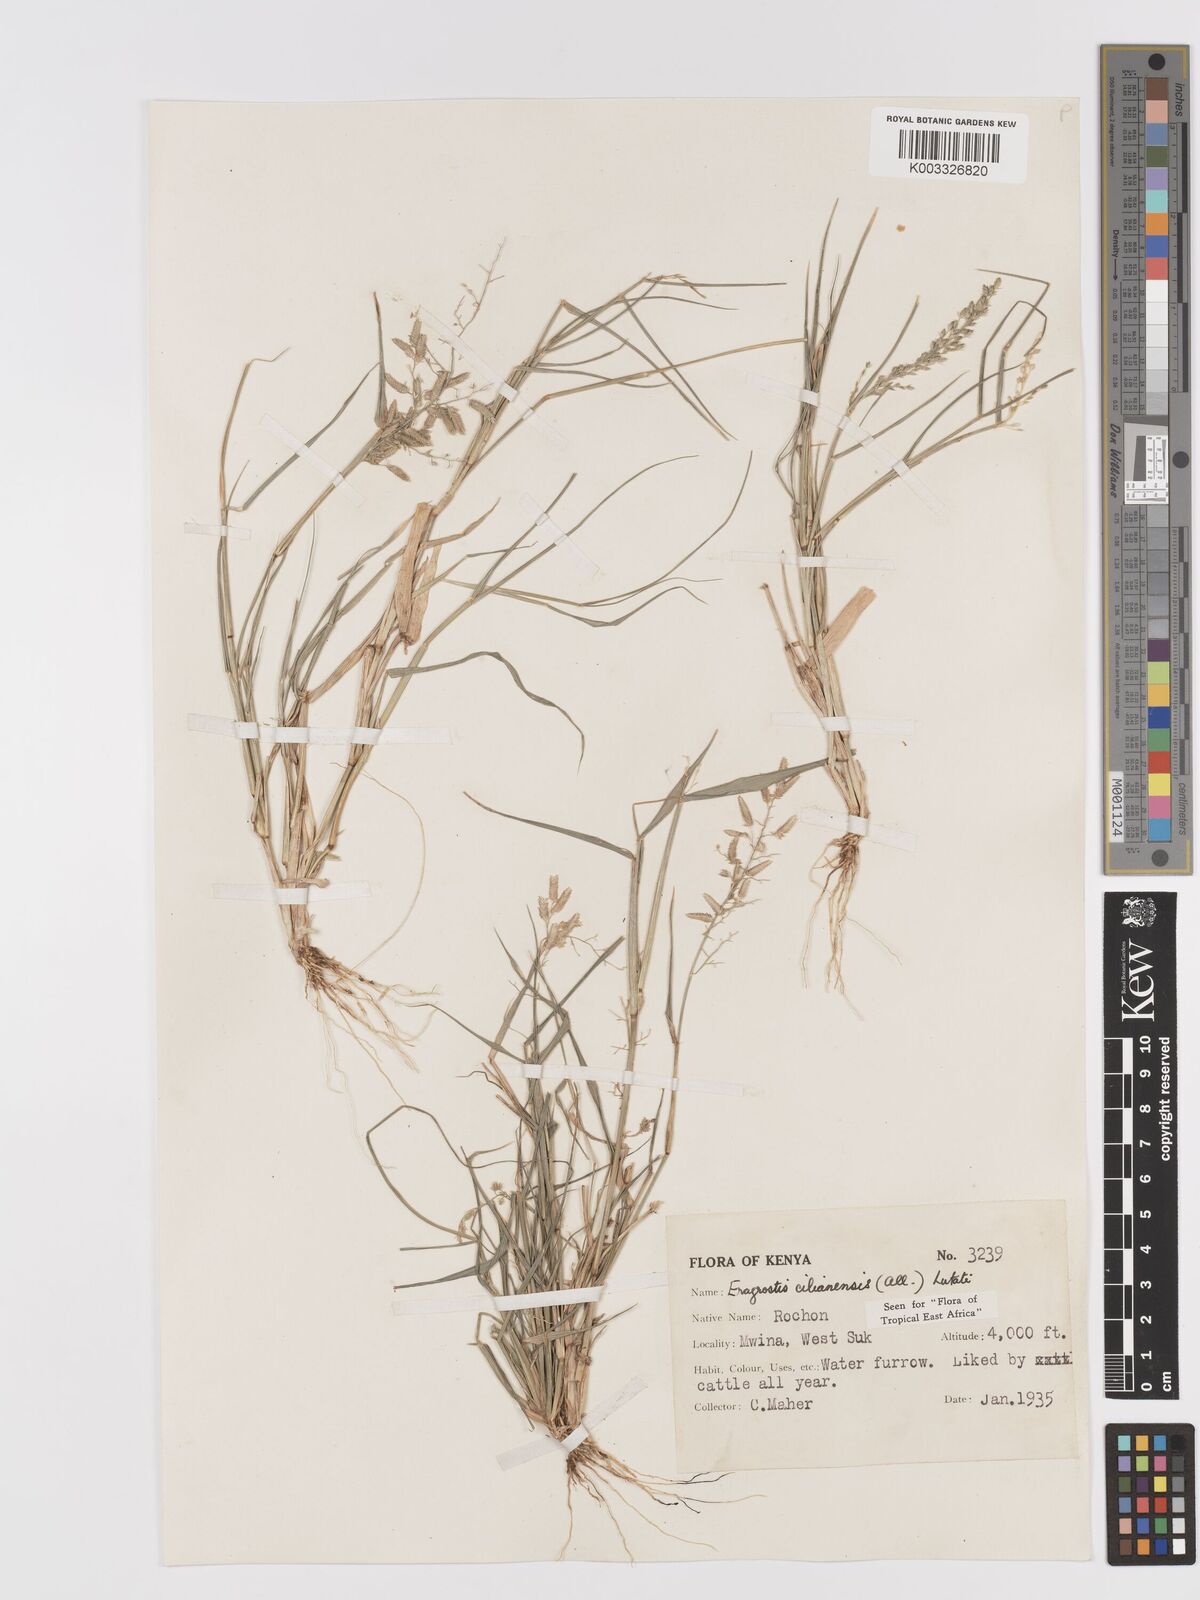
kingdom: Plantae
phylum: Tracheophyta
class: Liliopsida
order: Poales
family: Poaceae
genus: Eragrostis
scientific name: Eragrostis cilianensis
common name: Stinkgrass
